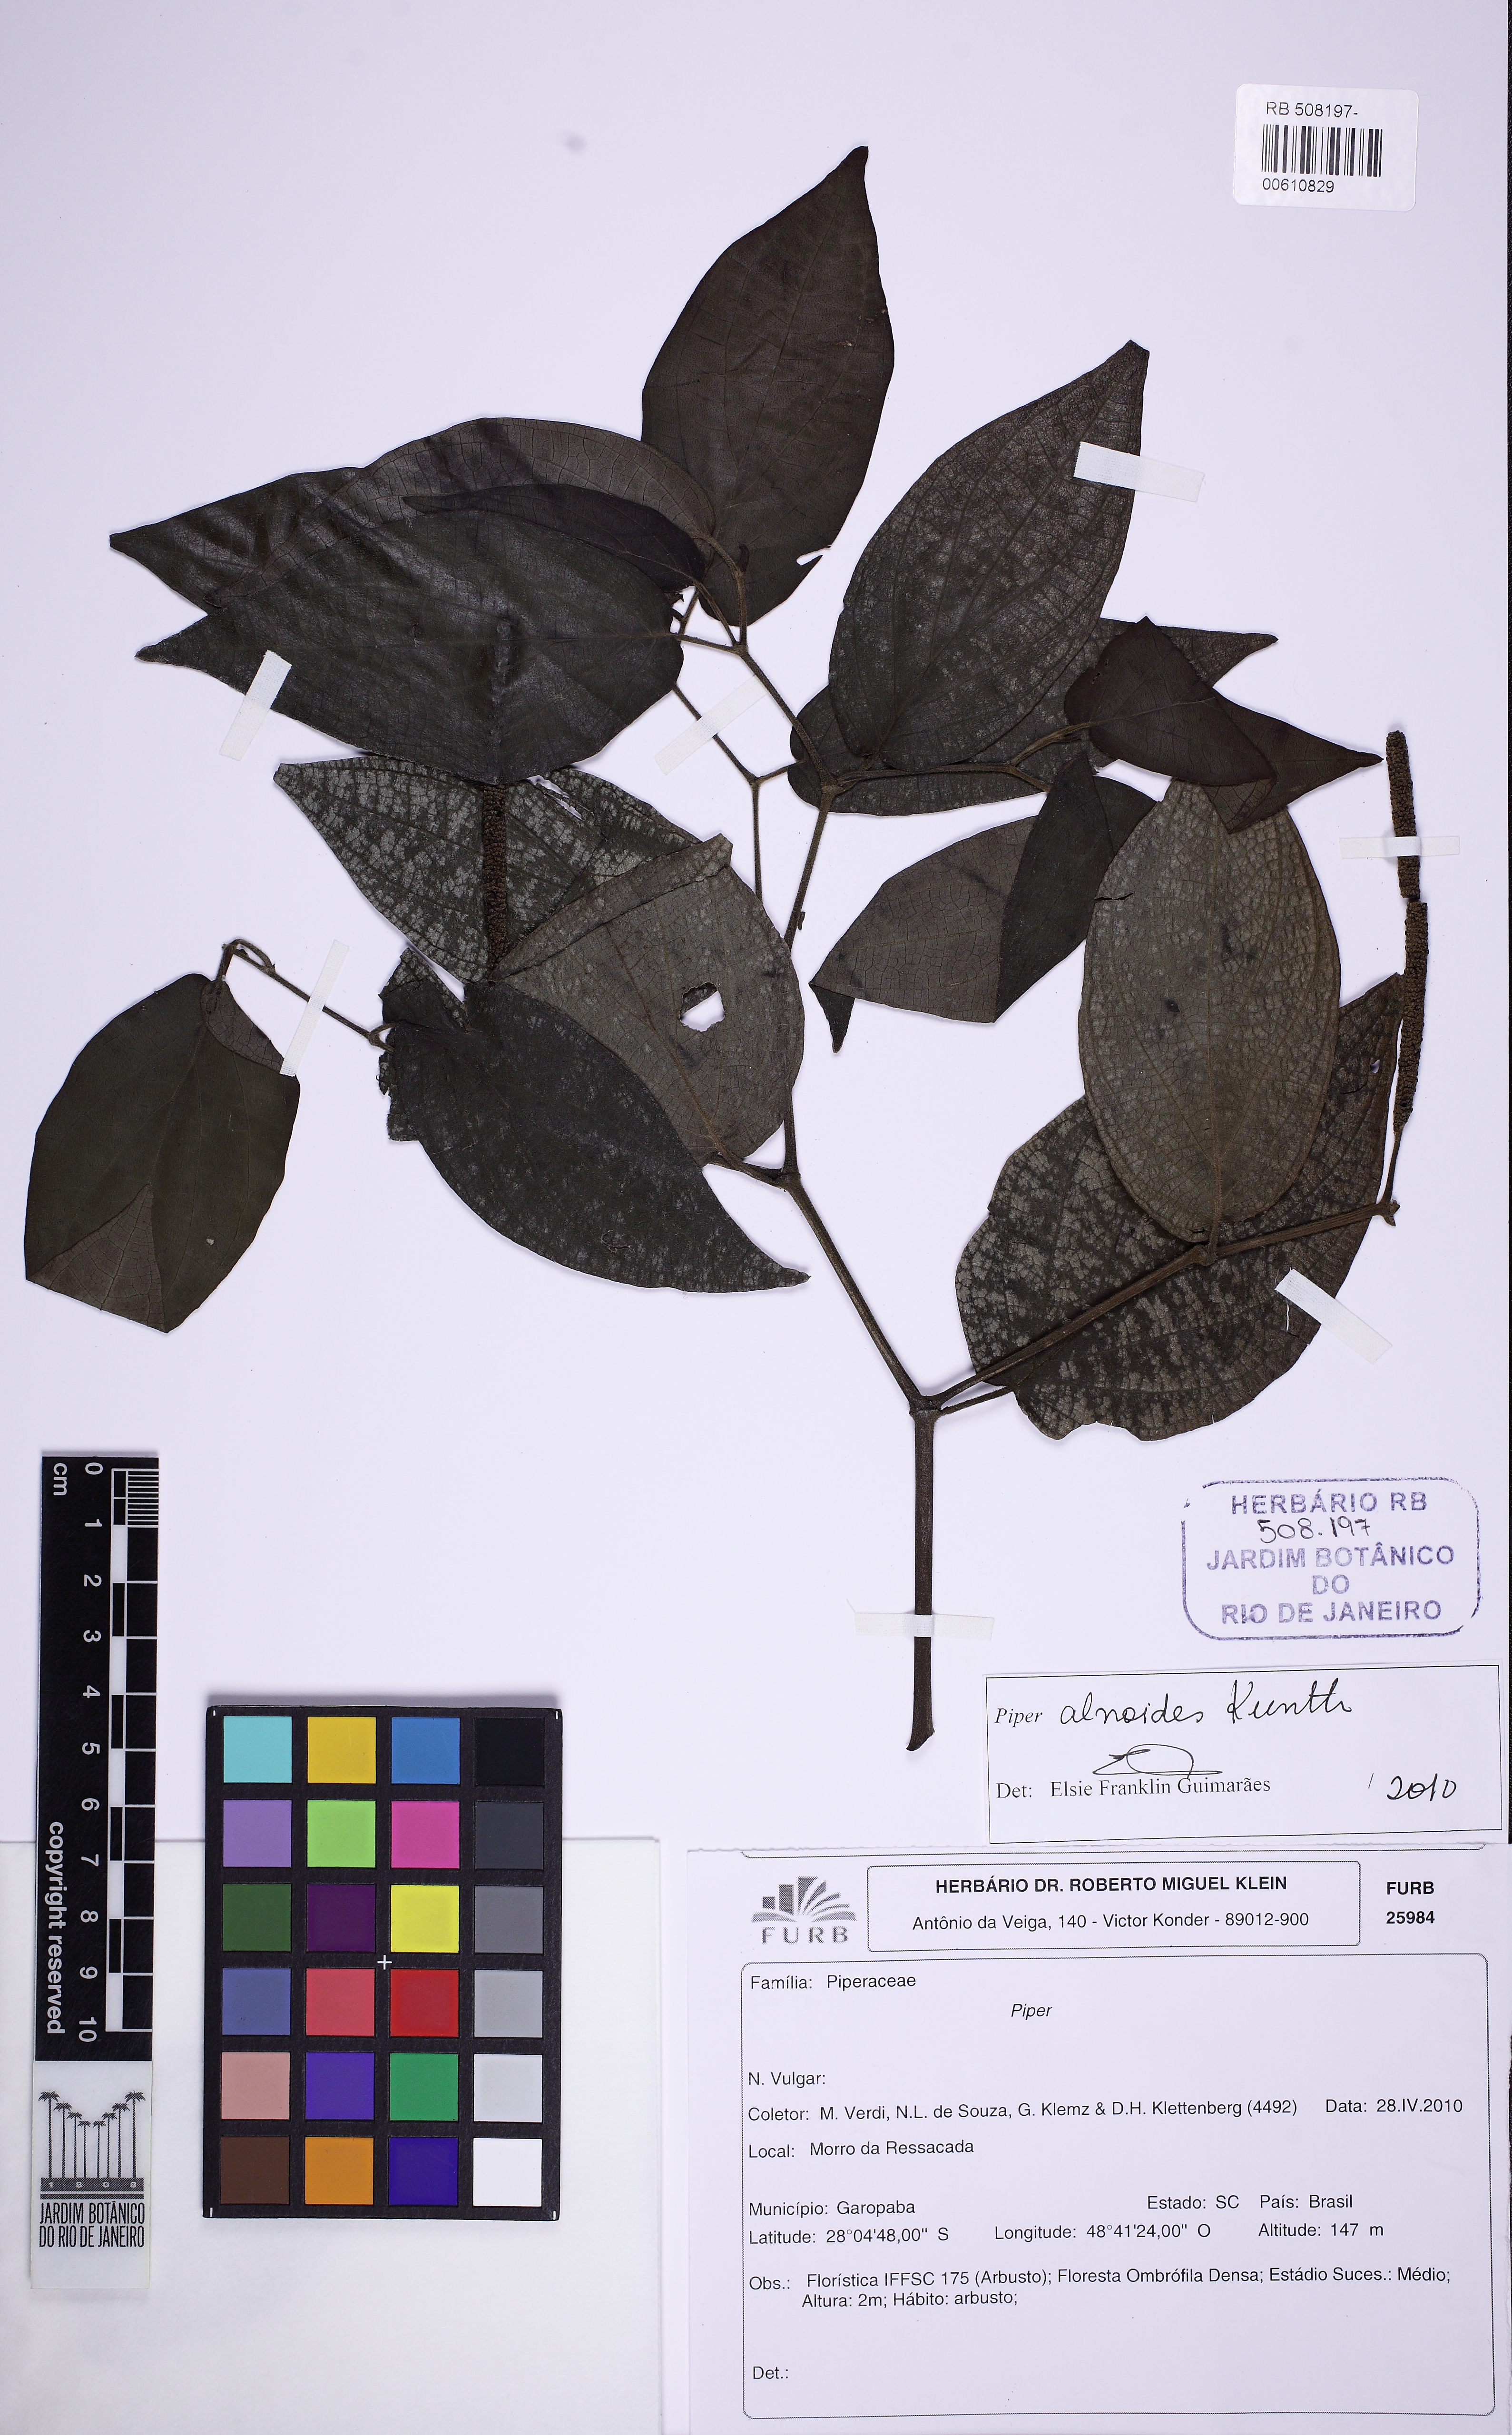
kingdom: Plantae
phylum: Tracheophyta
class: Magnoliopsida
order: Piperales
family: Piperaceae
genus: Piper
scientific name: Piper alnoides
